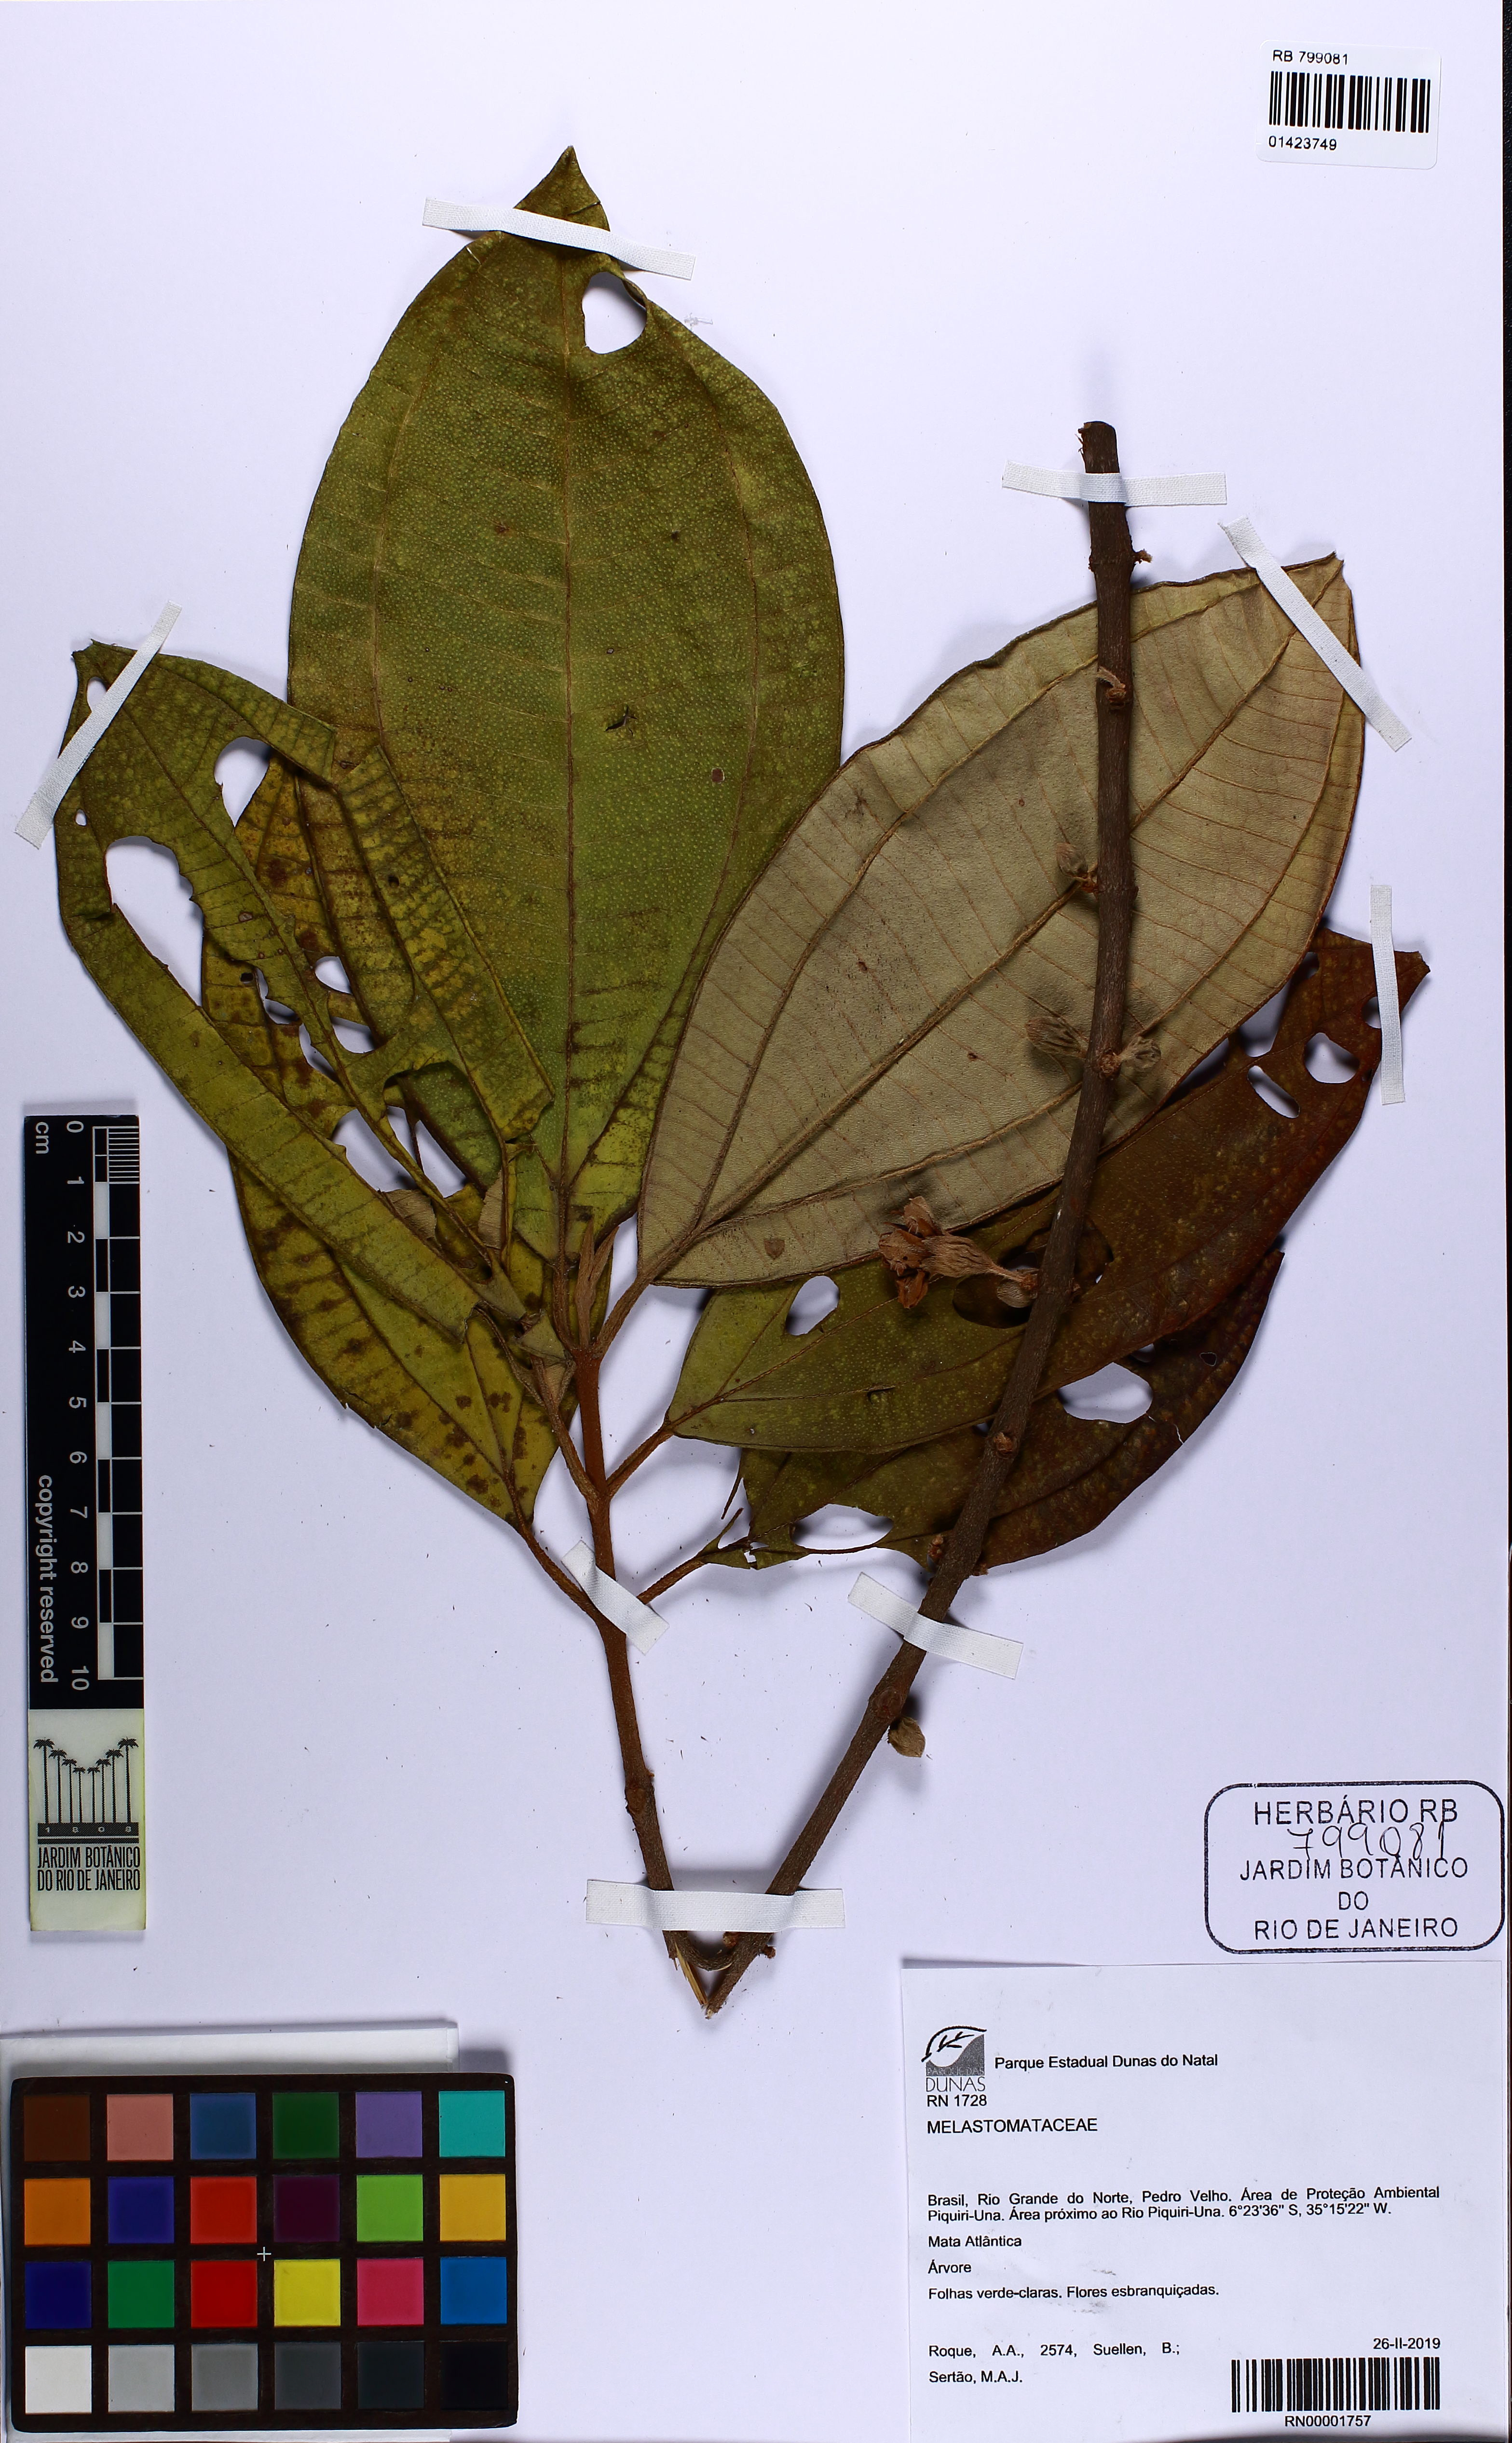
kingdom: Plantae
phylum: Tracheophyta
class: Magnoliopsida
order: Myrtales
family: Melastomataceae
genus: Henriettea
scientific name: Henriettea succosa
